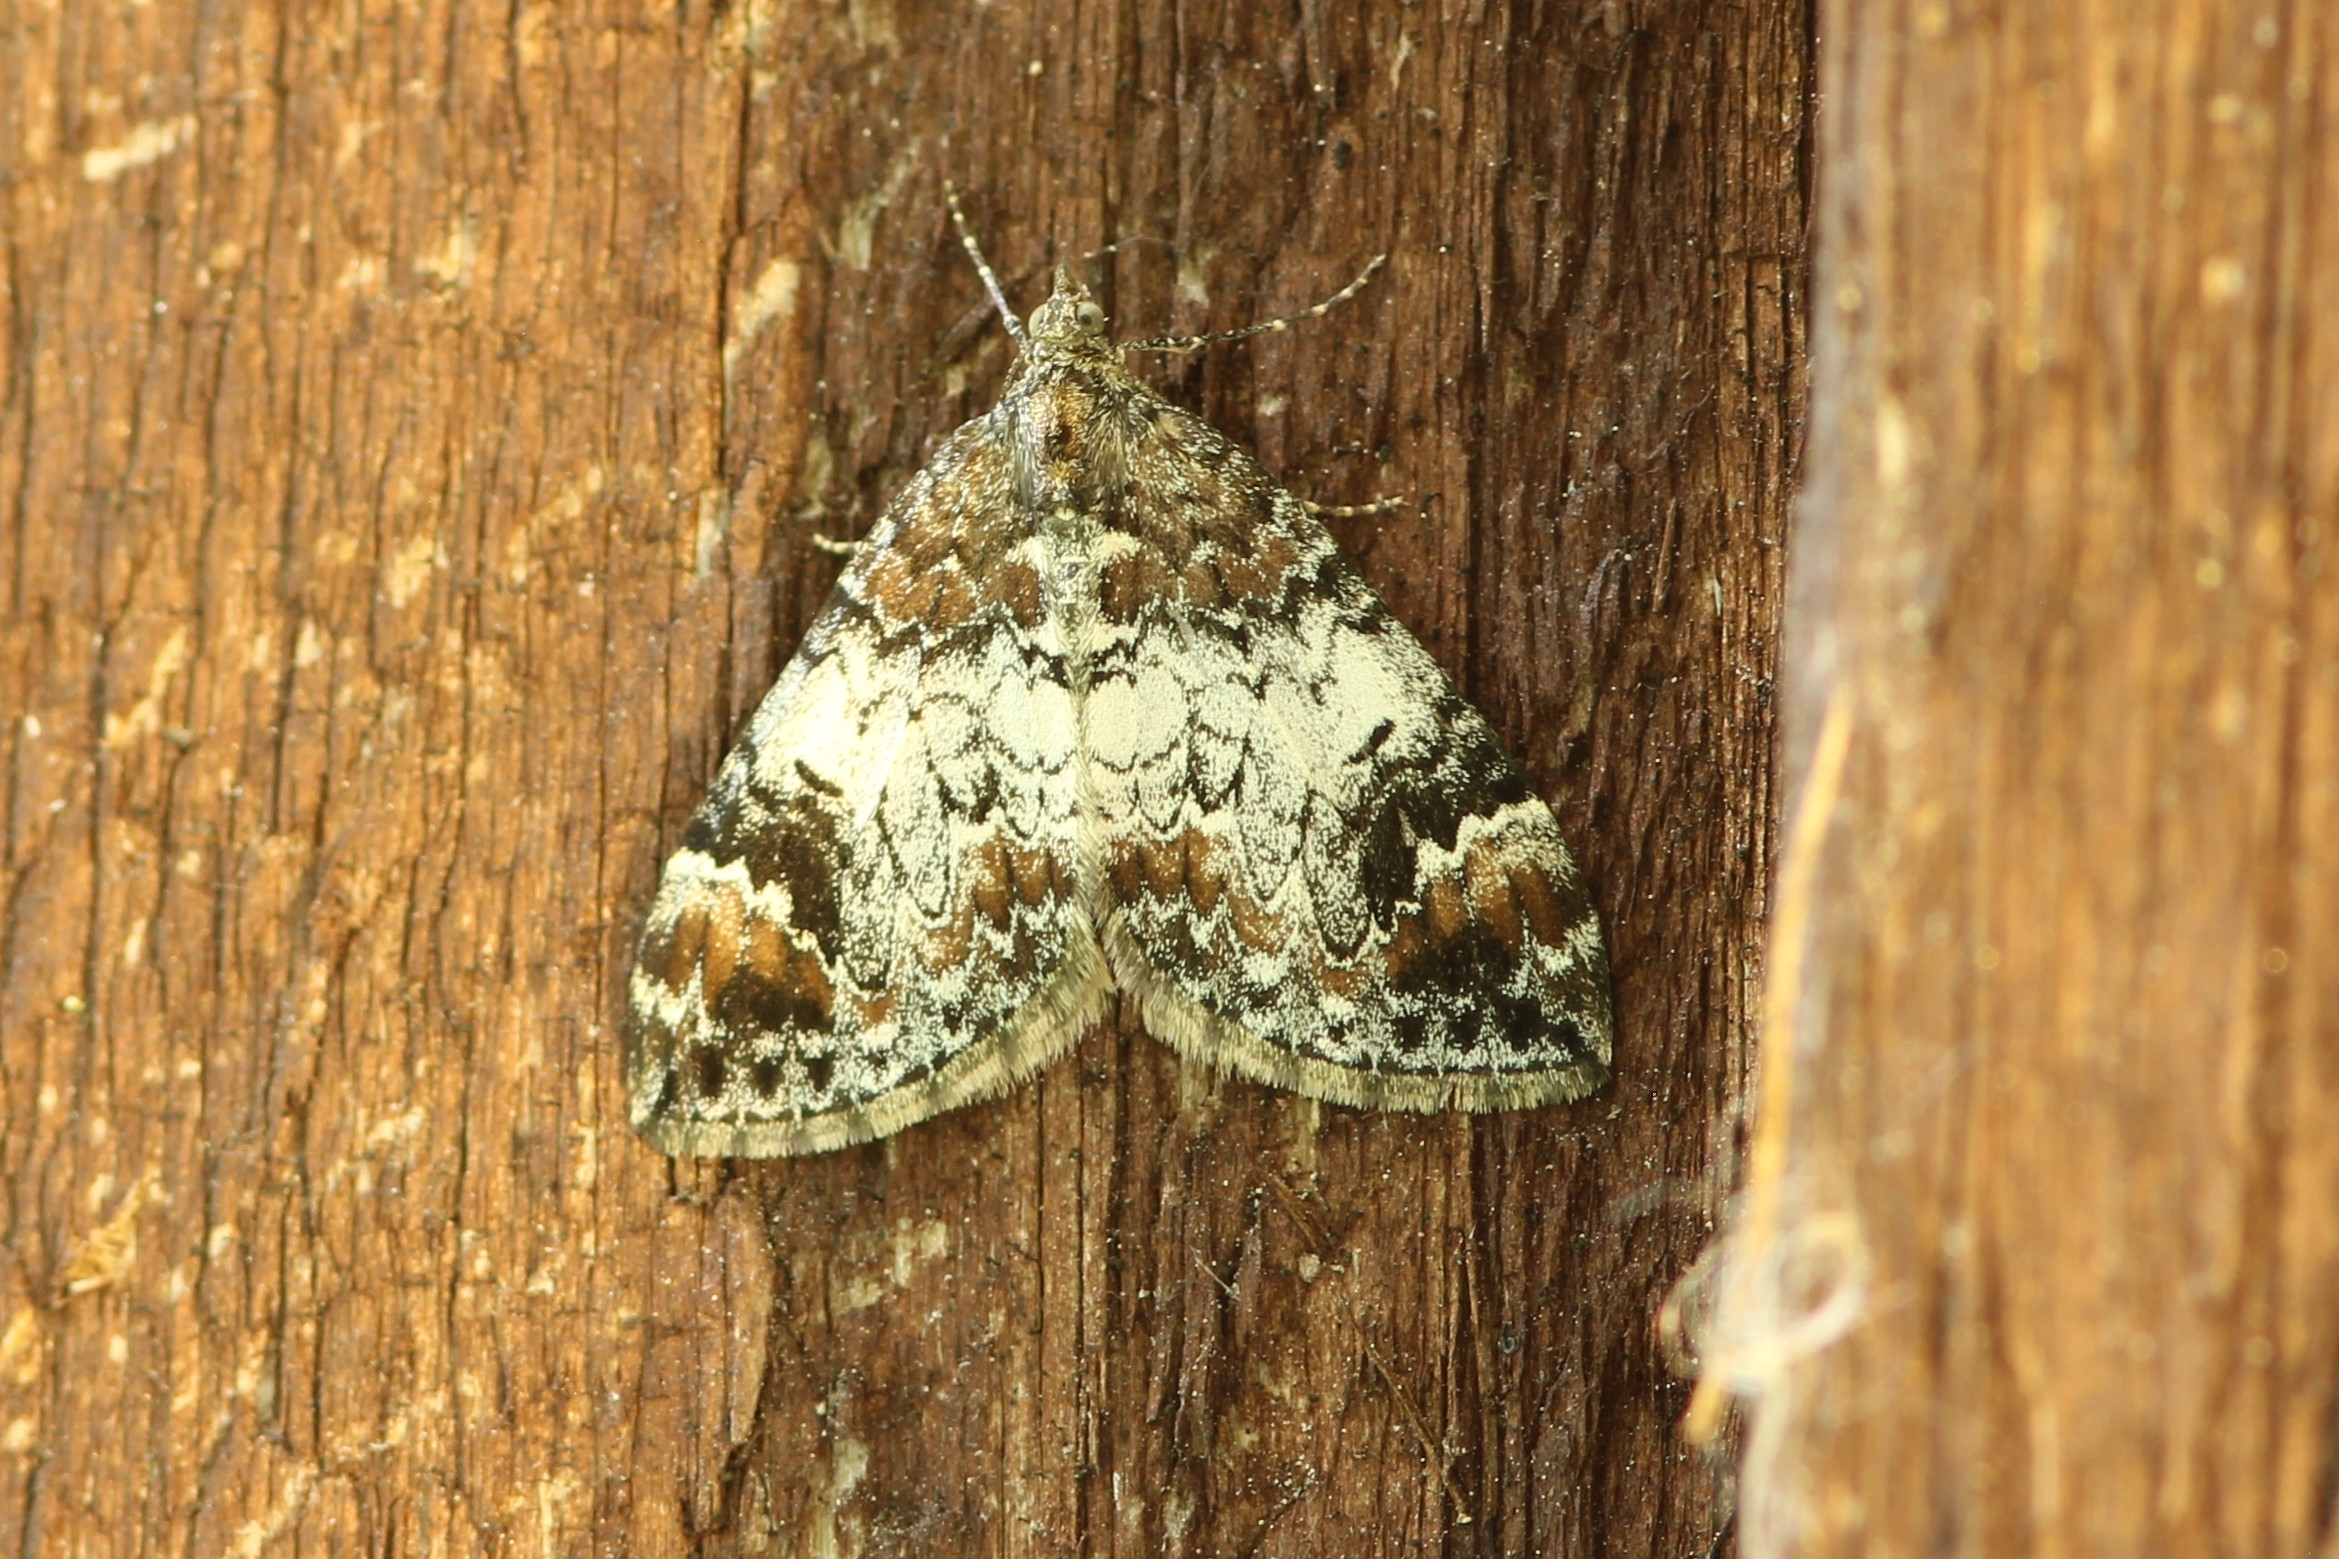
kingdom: Animalia
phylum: Arthropoda
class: Insecta
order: Lepidoptera
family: Geometridae
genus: Dysstroma
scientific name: Dysstroma truncata
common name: Common marbled carpet
